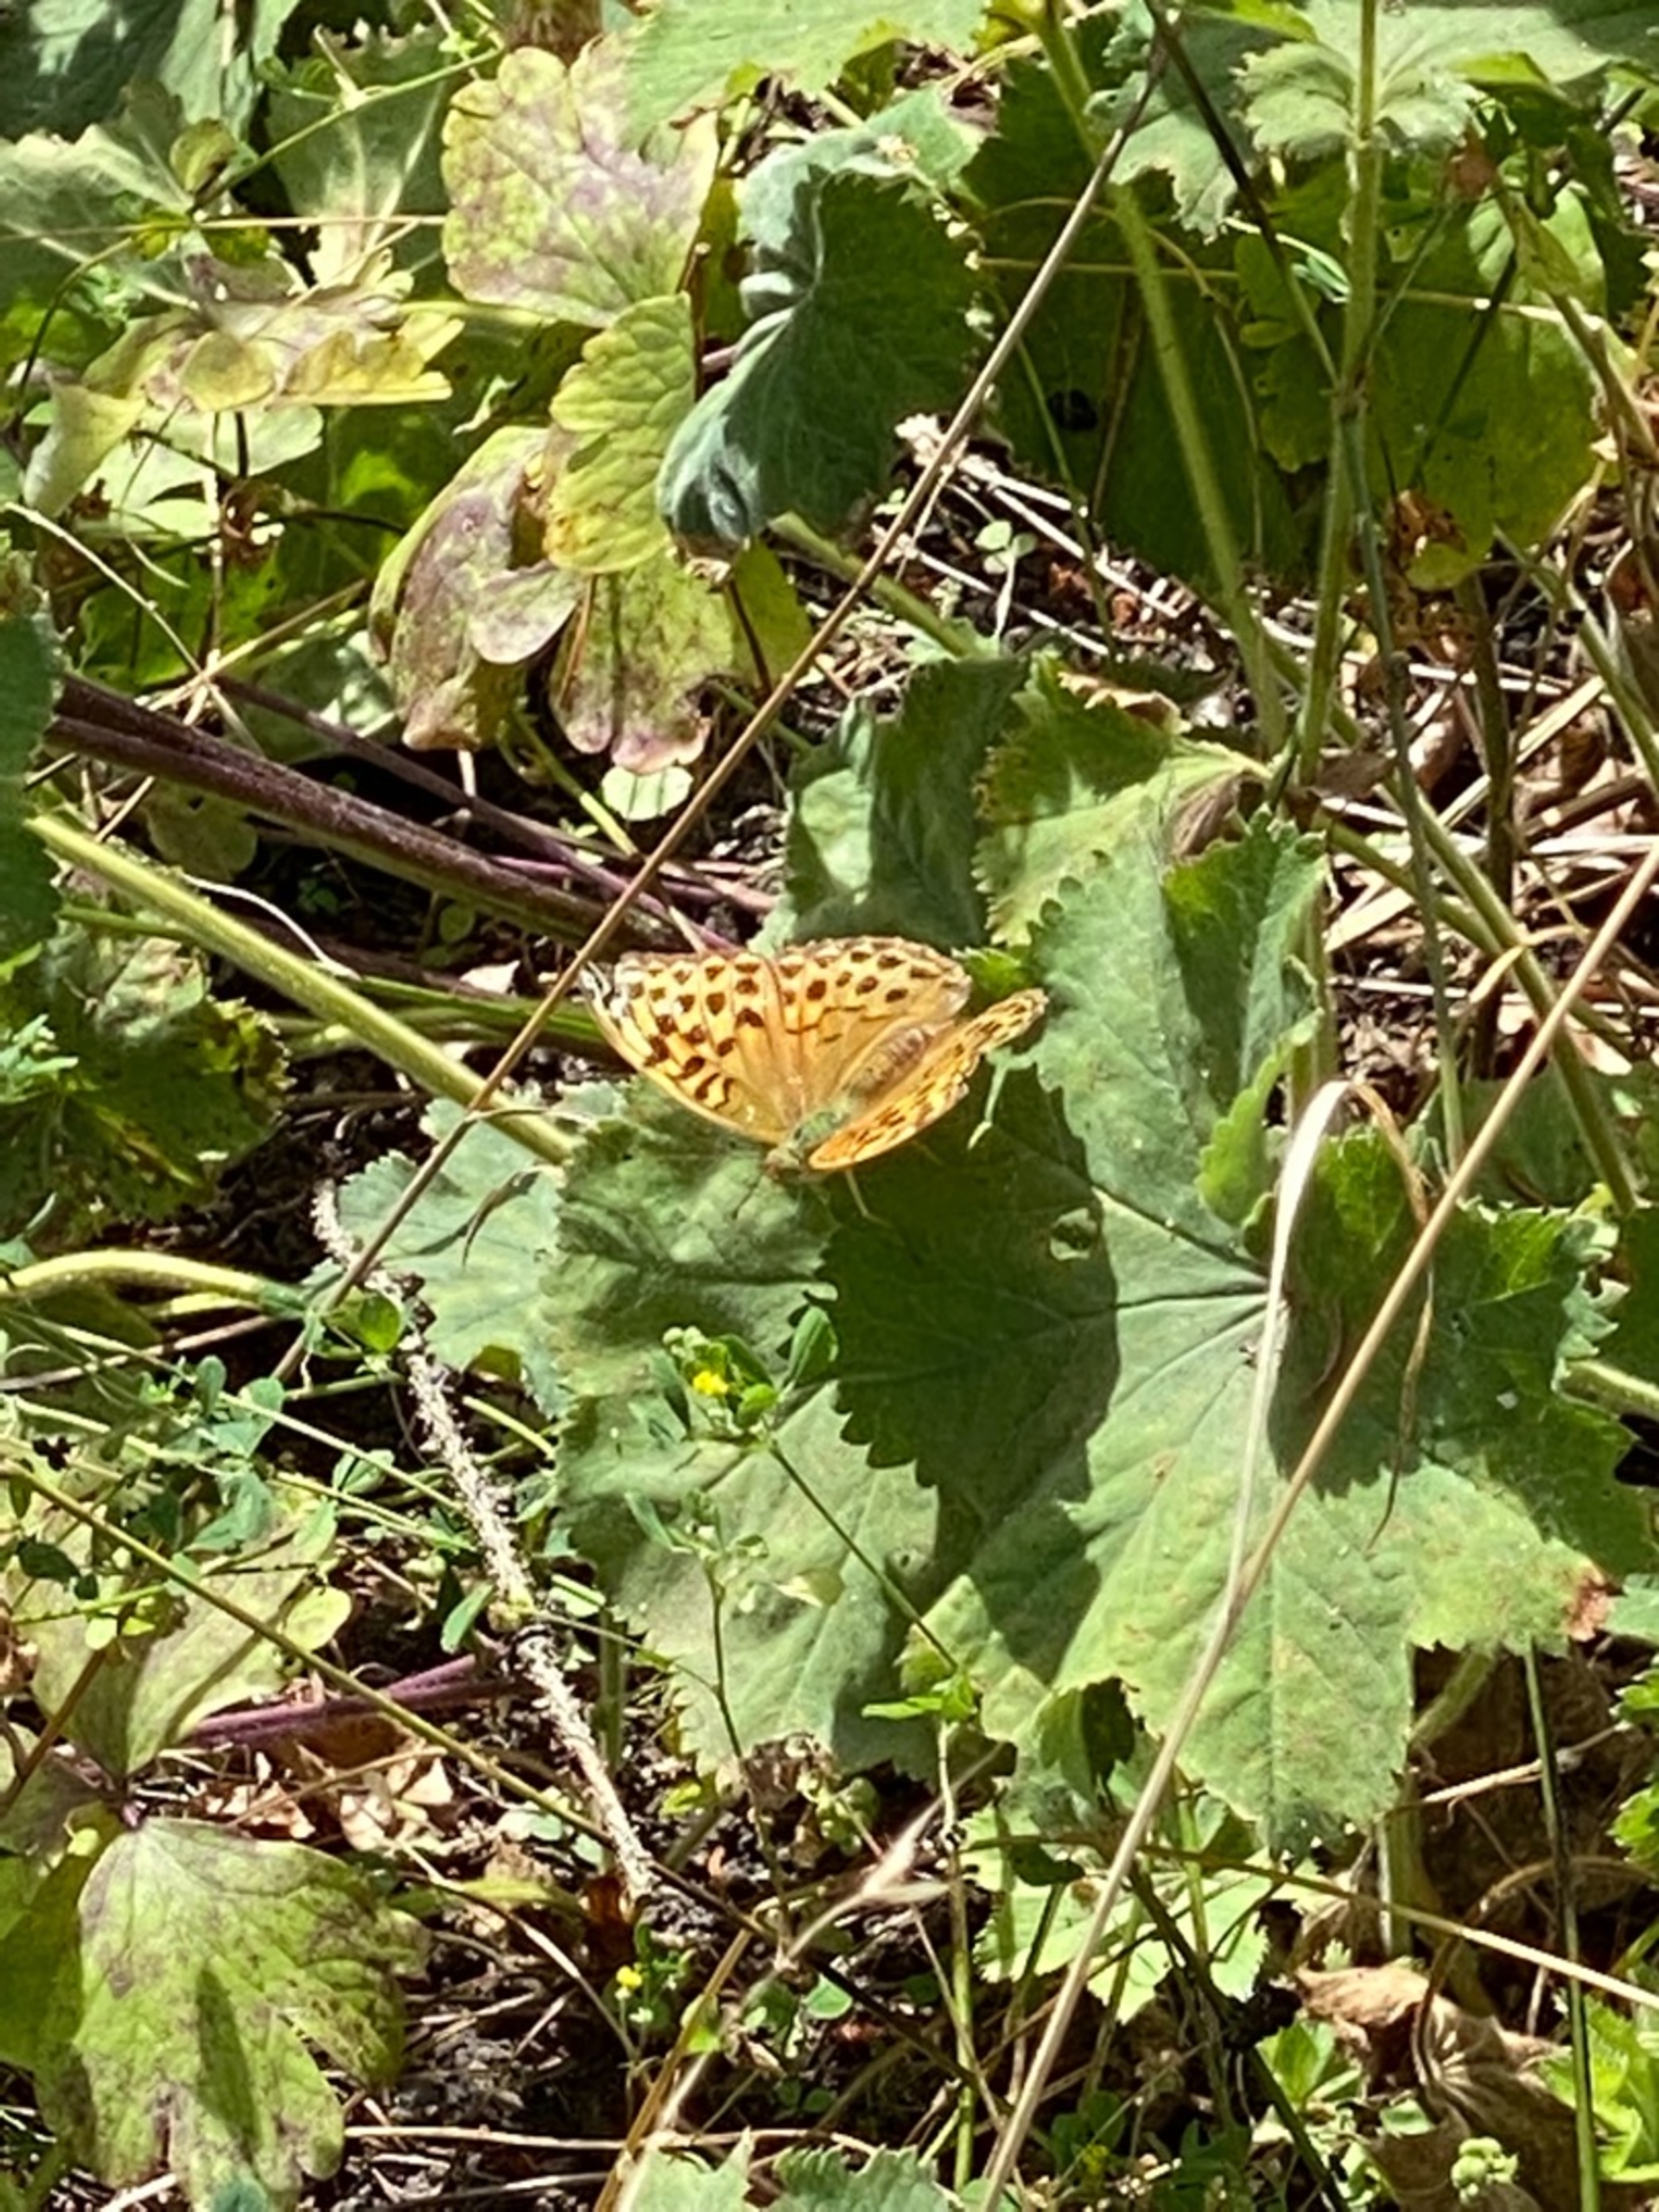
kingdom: Animalia
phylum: Arthropoda
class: Insecta
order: Lepidoptera
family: Nymphalidae
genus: Argynnis
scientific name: Argynnis paphia
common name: Kejserkåbe
